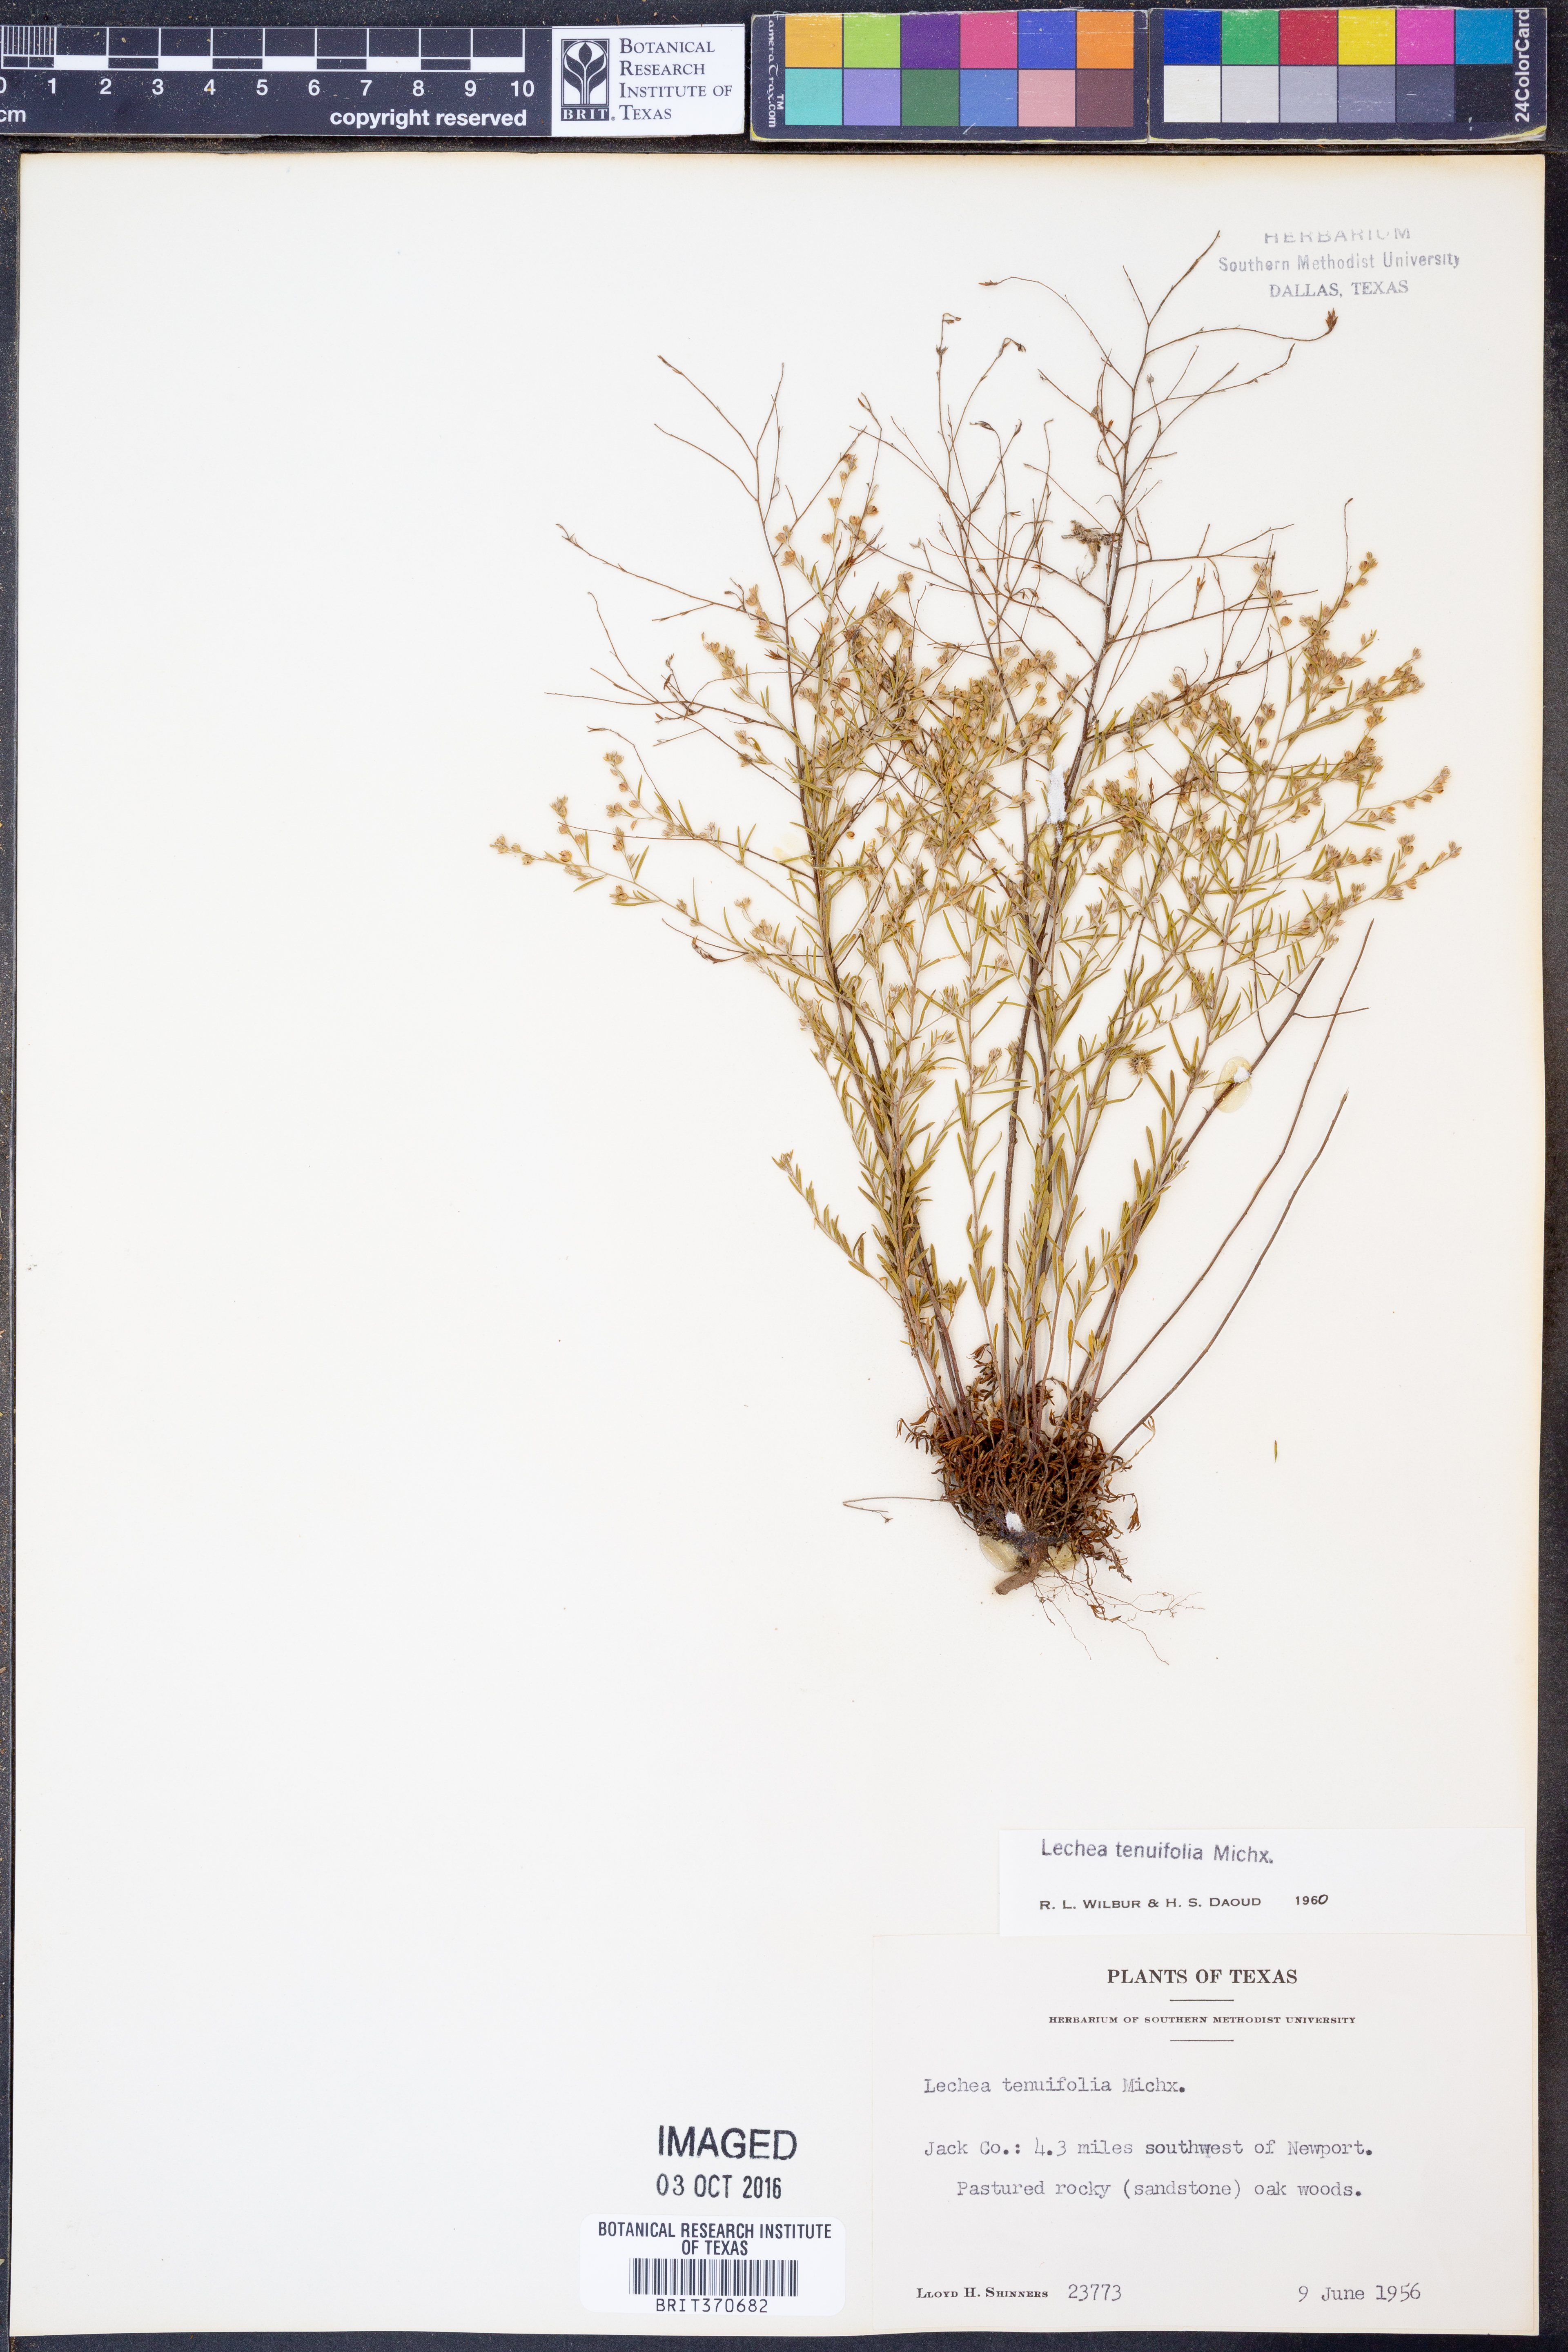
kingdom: Plantae
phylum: Tracheophyta
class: Magnoliopsida
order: Malvales
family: Cistaceae
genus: Lechea
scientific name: Lechea tenuifolia
